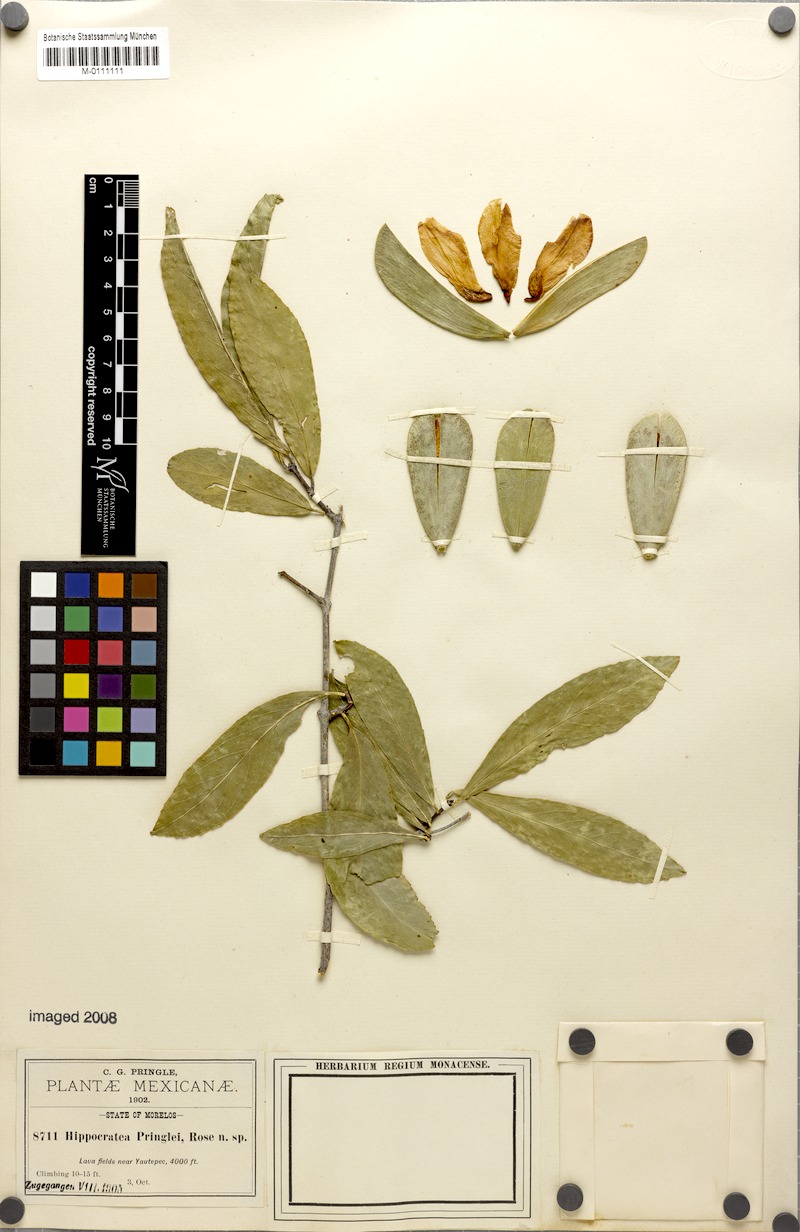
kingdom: Plantae
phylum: Tracheophyta
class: Magnoliopsida
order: Celastrales
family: Celastraceae
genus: Hippocratea
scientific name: Hippocratea
